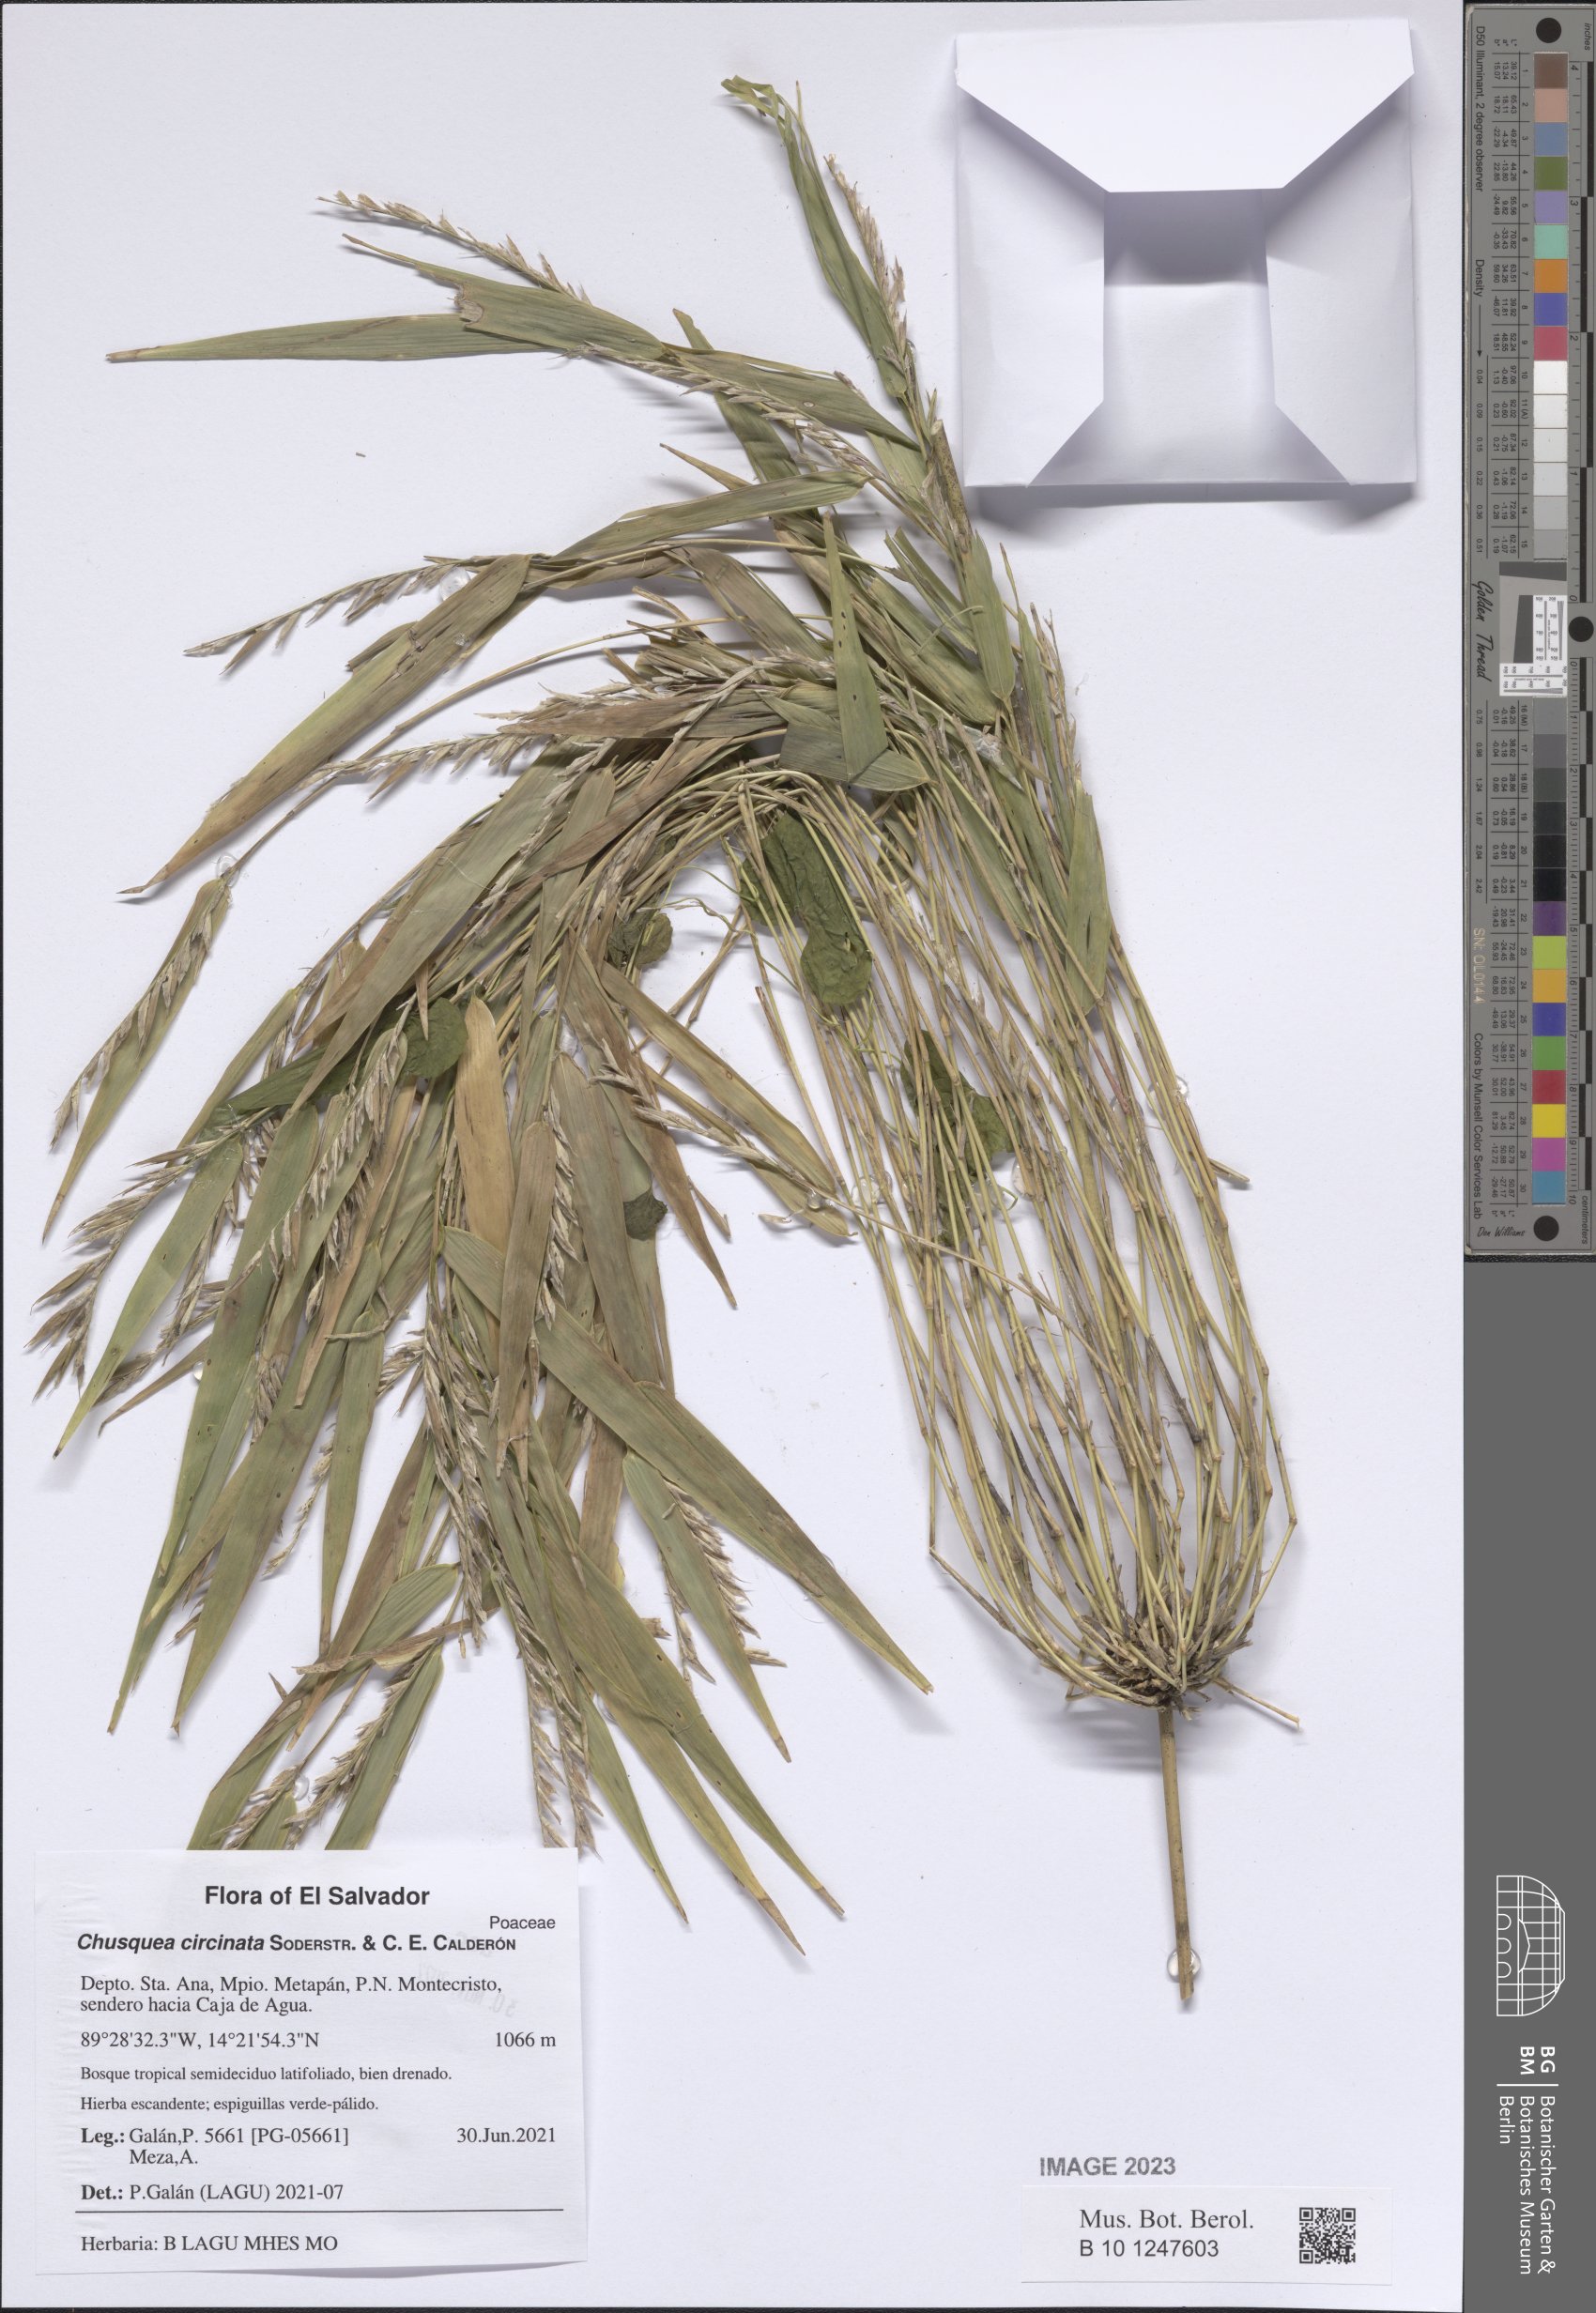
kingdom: Plantae
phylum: Tracheophyta
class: Liliopsida
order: Poales
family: Poaceae
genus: Chusquea
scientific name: Chusquea circinata
